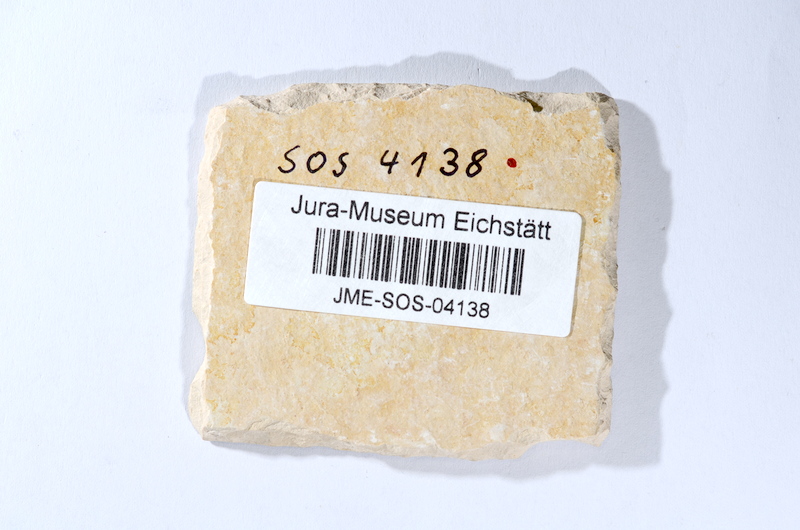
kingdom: Animalia
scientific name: Animalia
